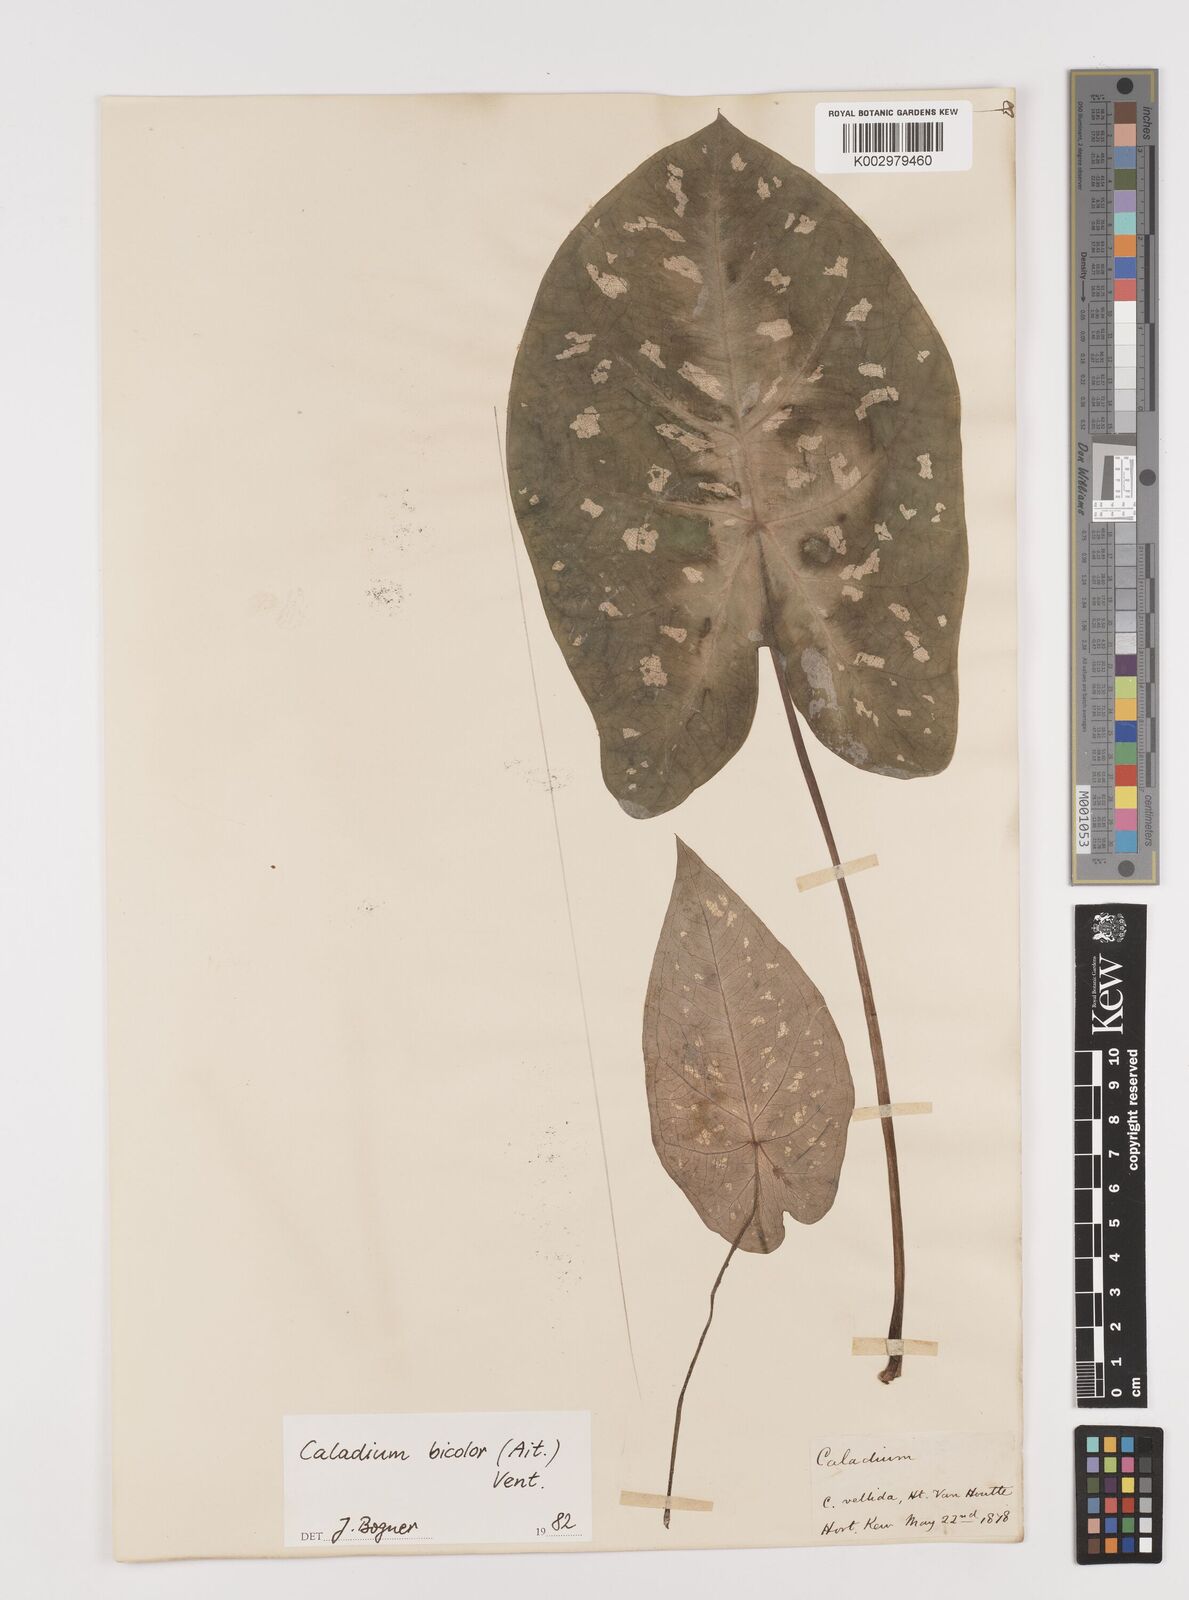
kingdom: Plantae
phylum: Tracheophyta
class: Liliopsida
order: Alismatales
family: Araceae
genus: Caladium
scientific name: Caladium bicolor
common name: Artist's pallet
